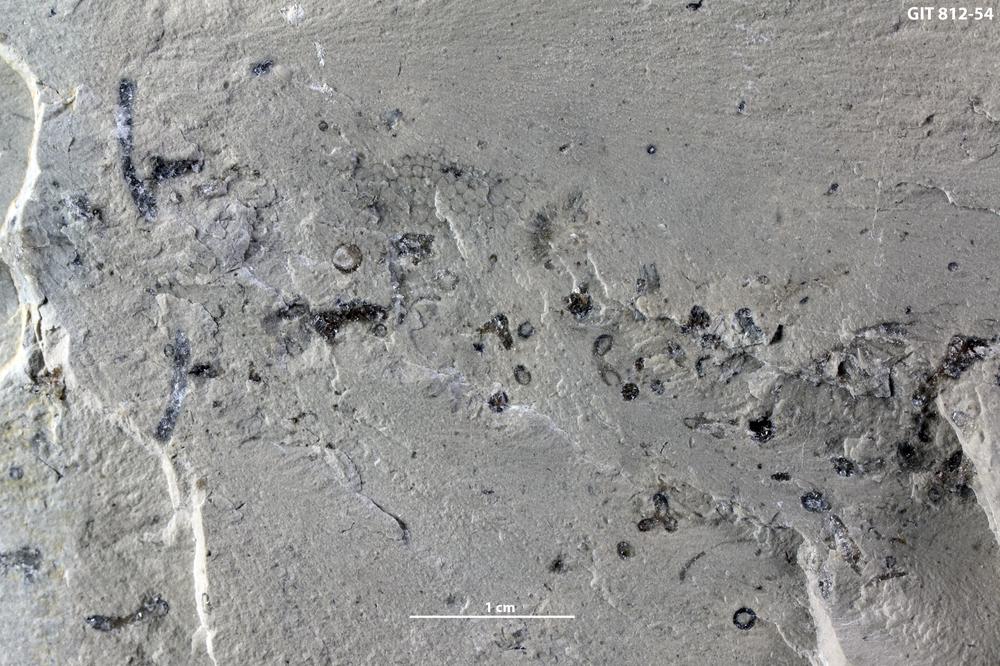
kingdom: Plantae
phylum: Chlorophyta
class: Ulvophyceae
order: Dasycladales
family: Dasycladaceae
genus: Vermiporella
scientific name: Vermiporella
